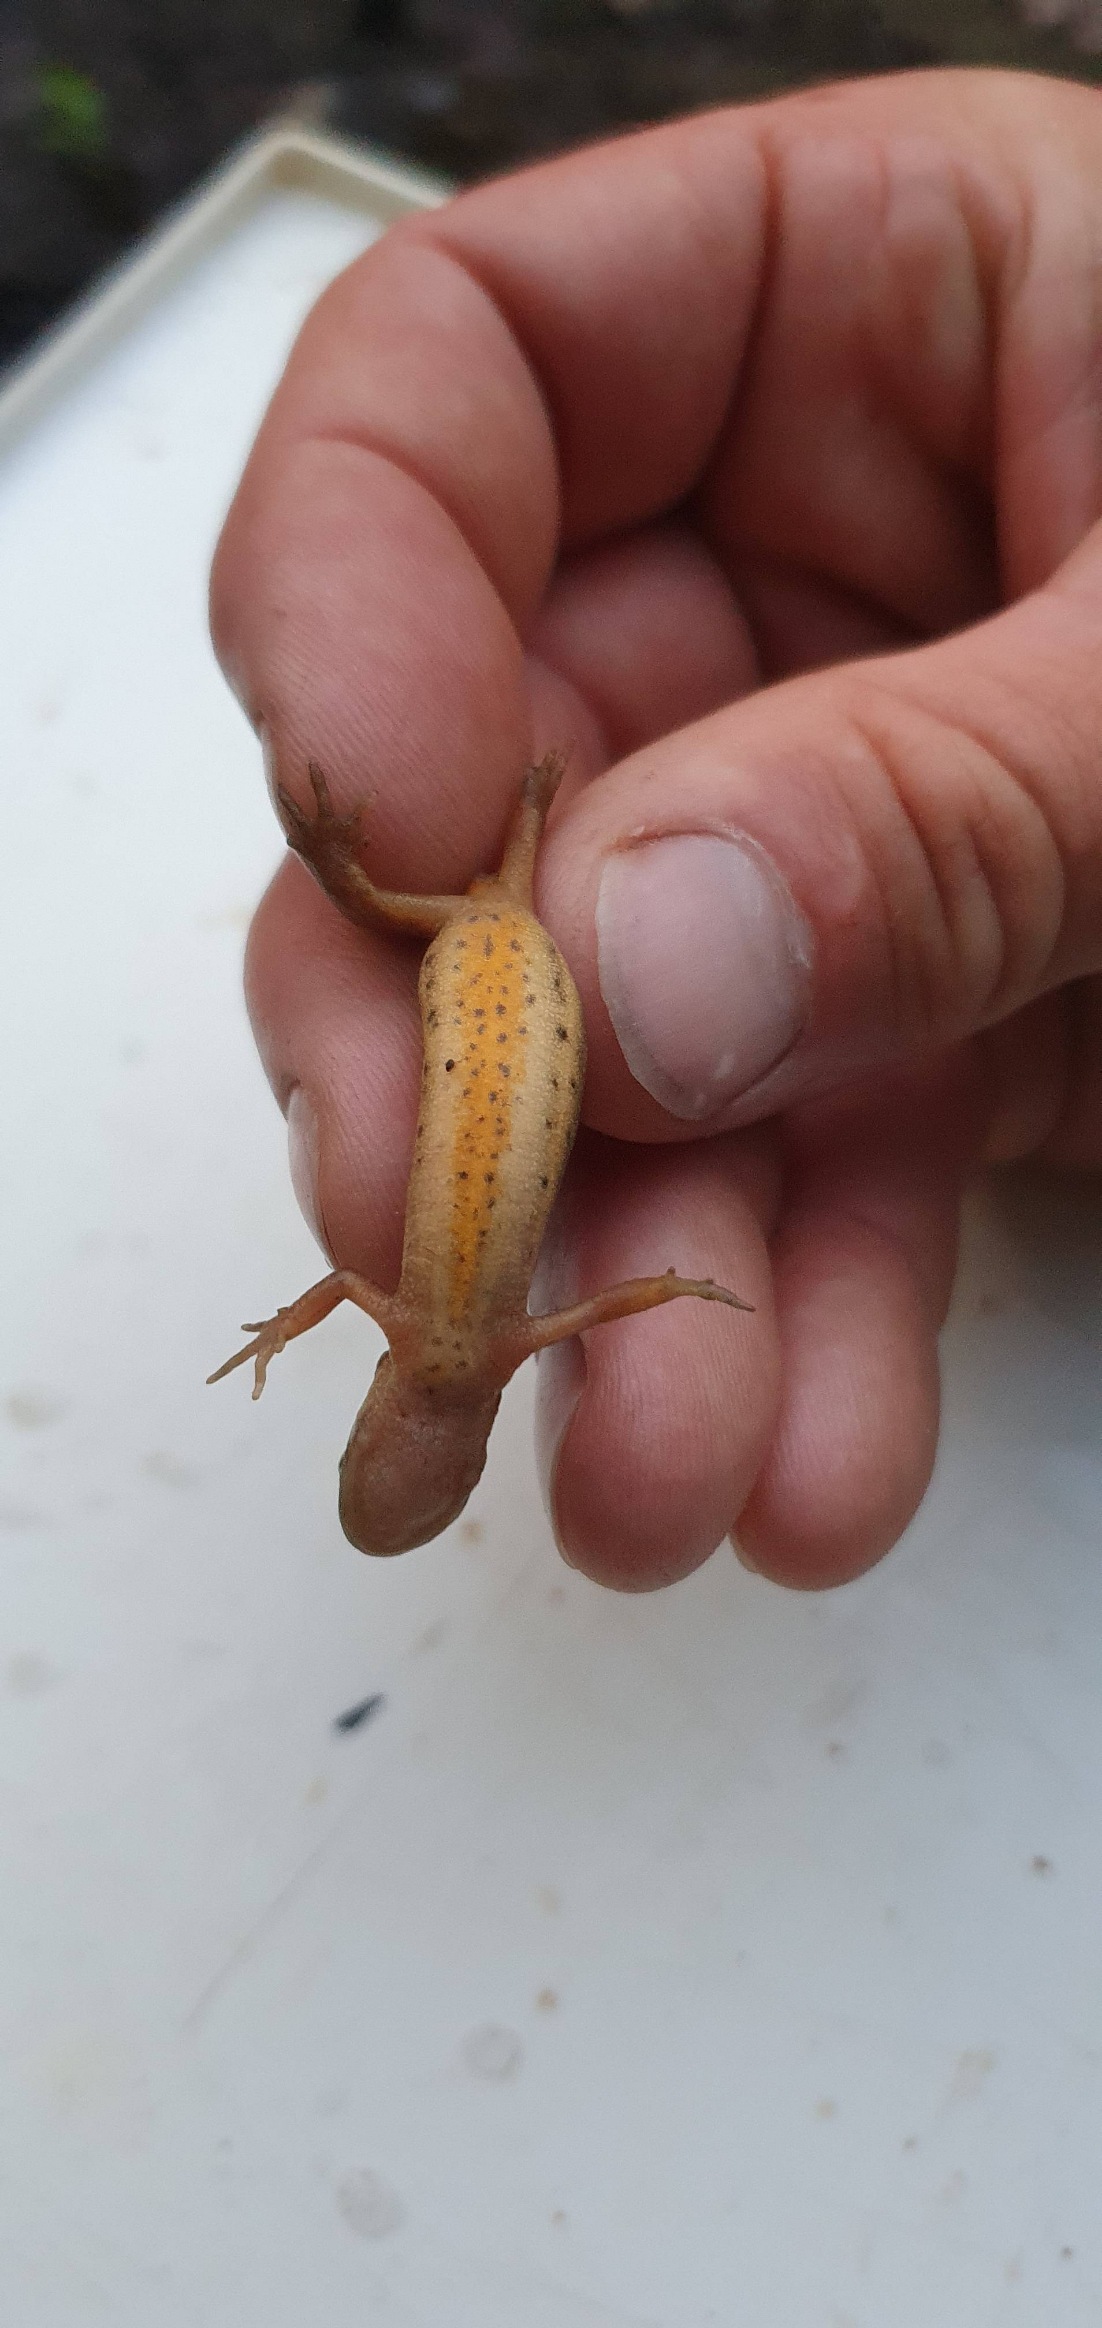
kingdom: Animalia
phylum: Chordata
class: Amphibia
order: Caudata
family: Salamandridae
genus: Lissotriton
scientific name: Lissotriton vulgaris
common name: Lille vandsalamander
